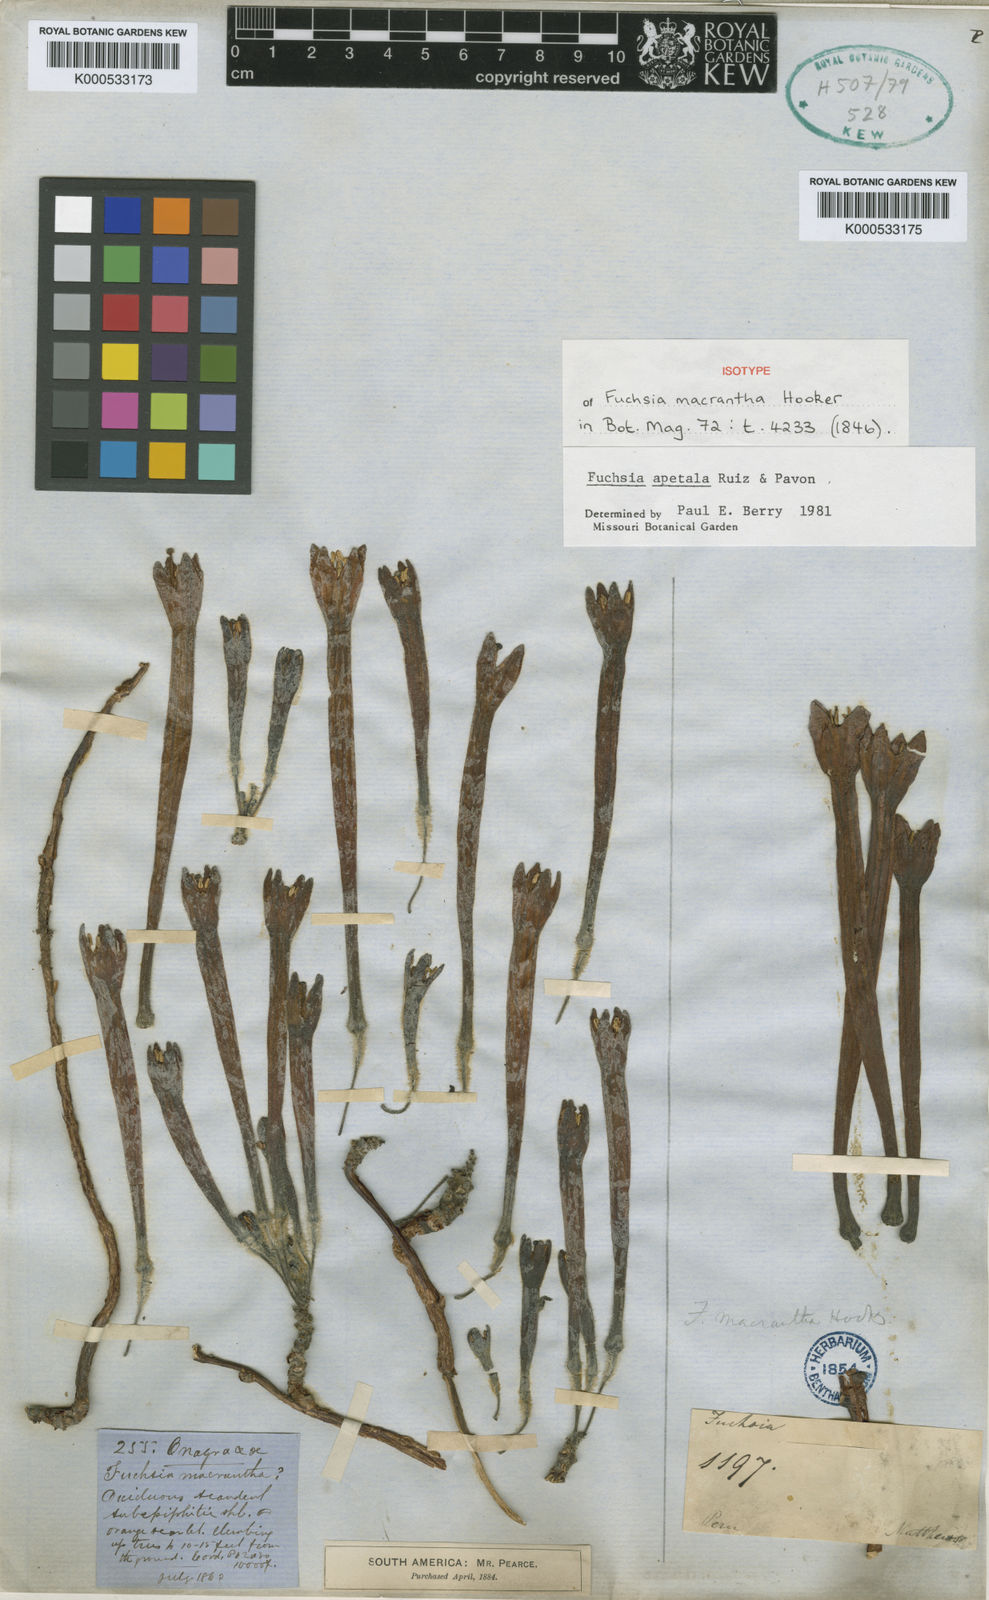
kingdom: Plantae
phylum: Tracheophyta
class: Magnoliopsida
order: Myrtales
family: Onagraceae
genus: Fuchsia
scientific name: Fuchsia apetala
